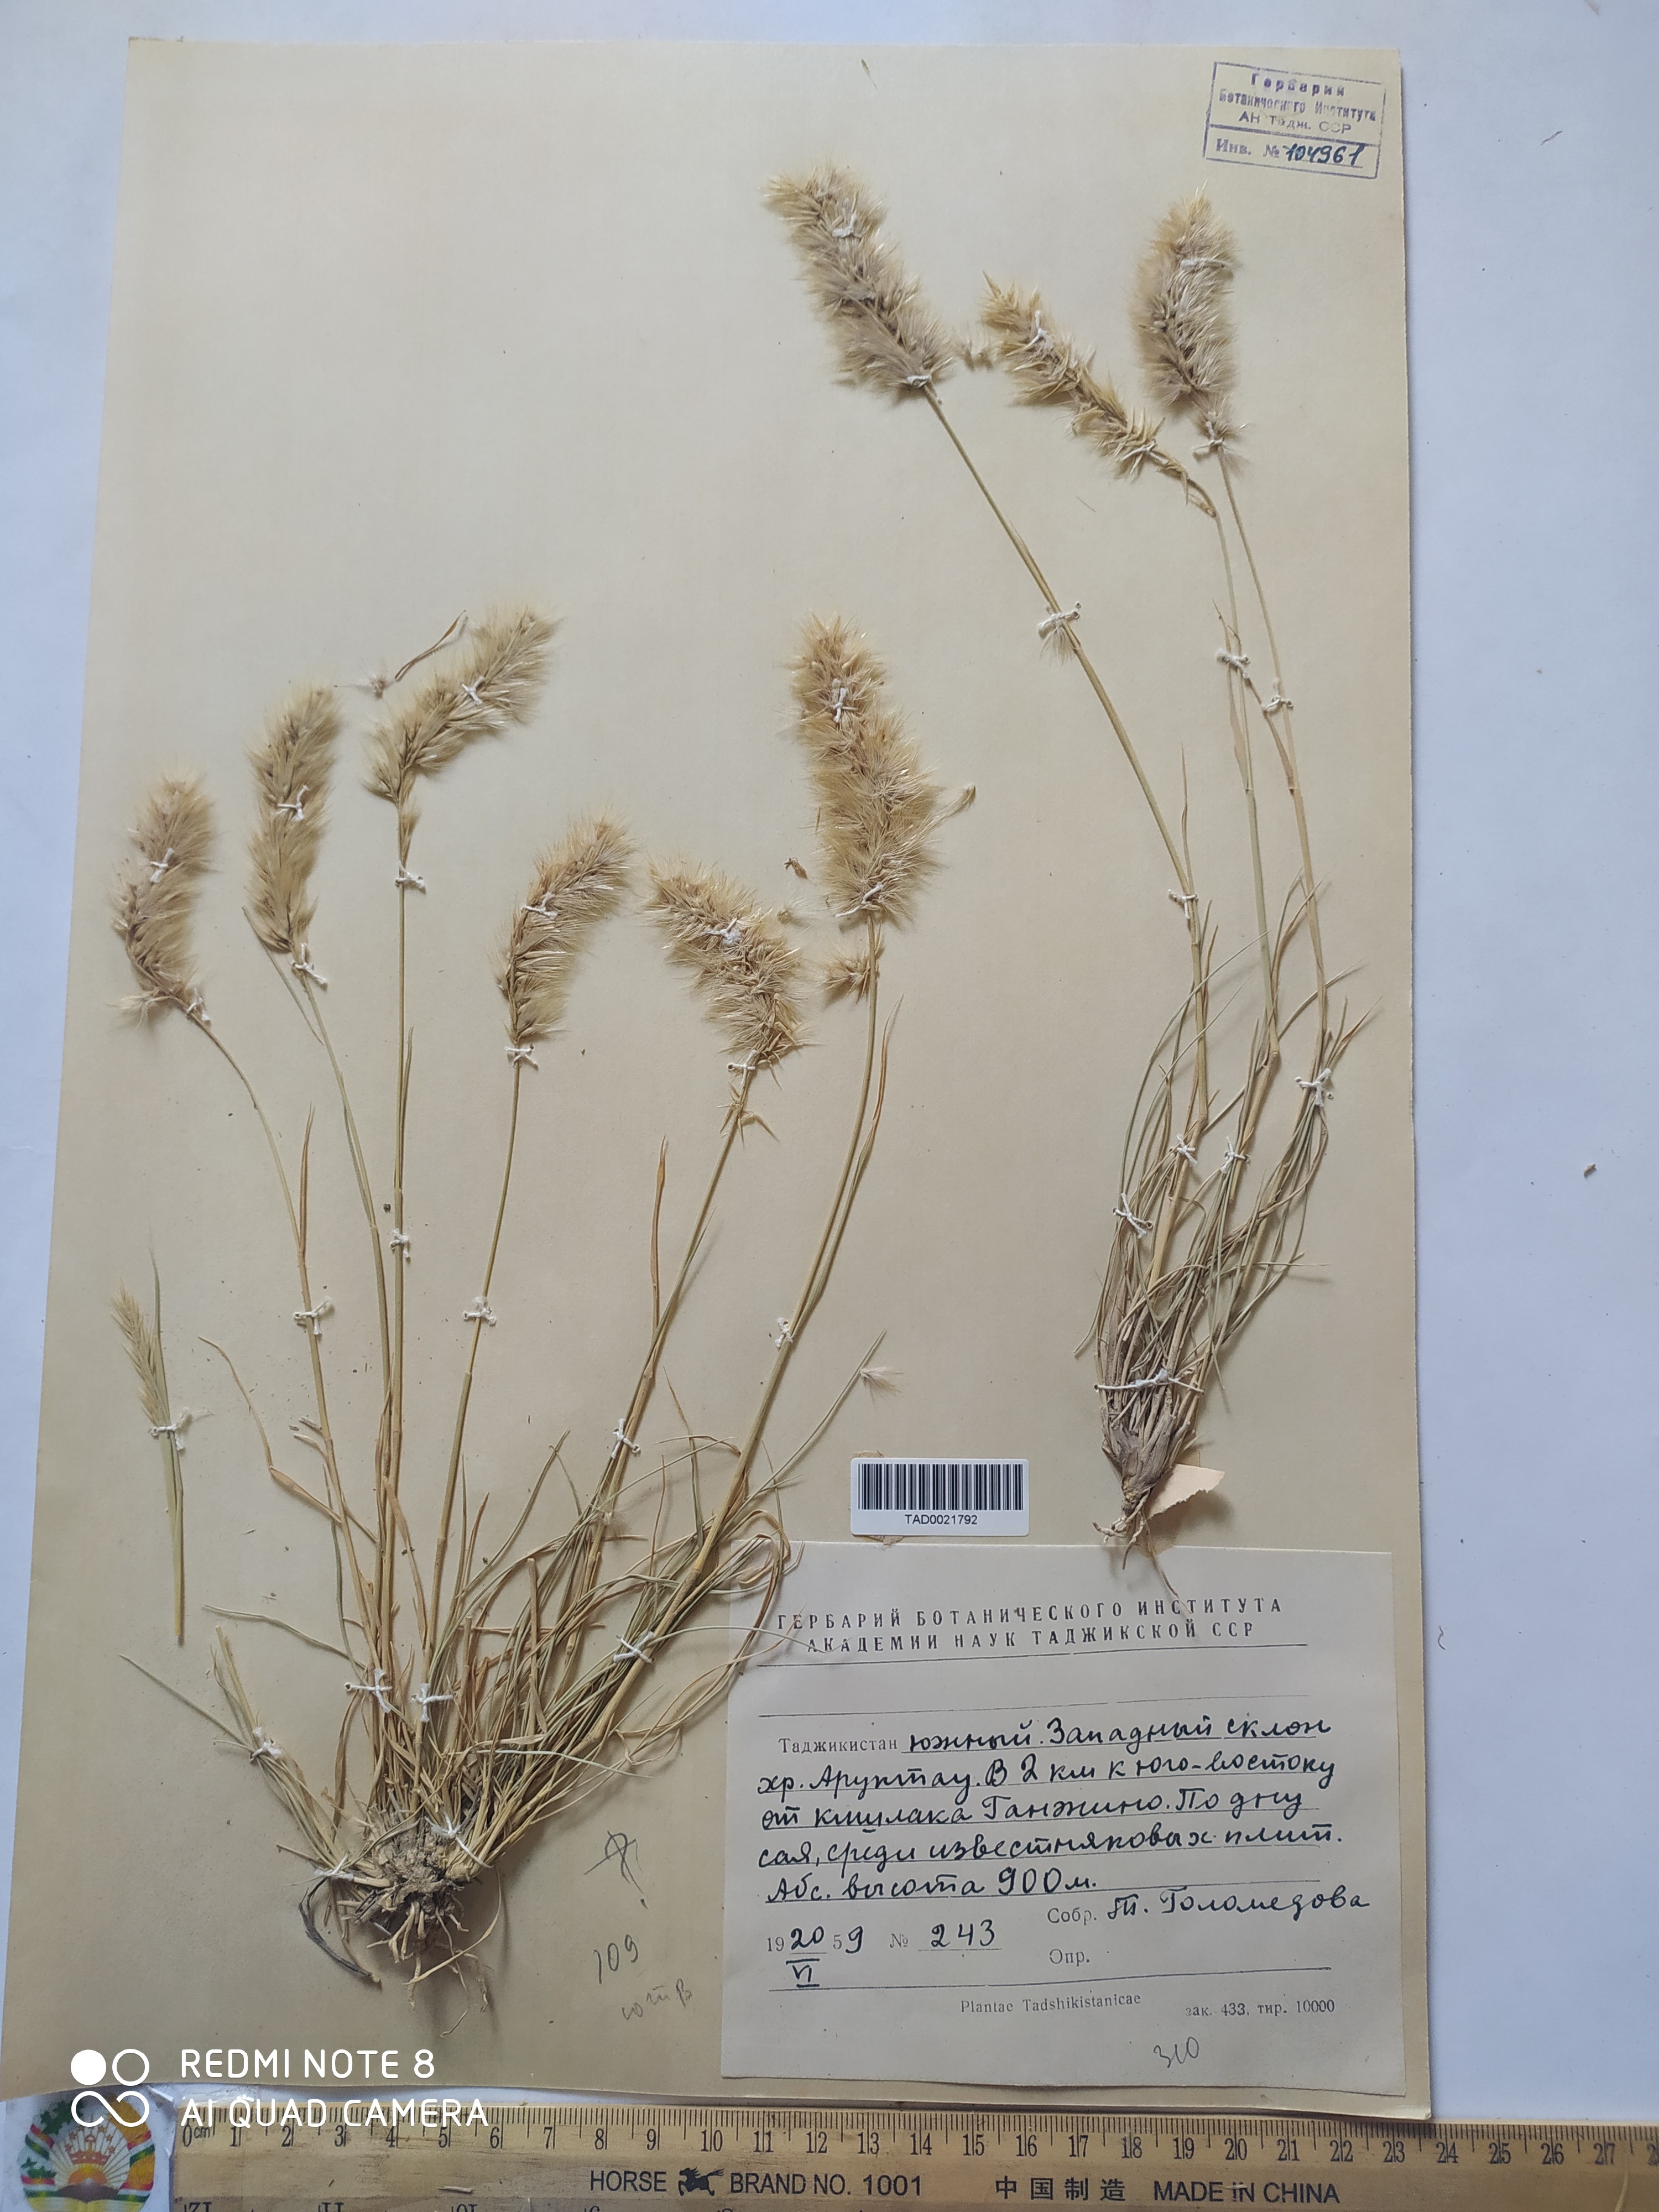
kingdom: Plantae
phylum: Tracheophyta
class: Liliopsida
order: Poales
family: Poaceae
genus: Enneapogon
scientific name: Enneapogon persicus
